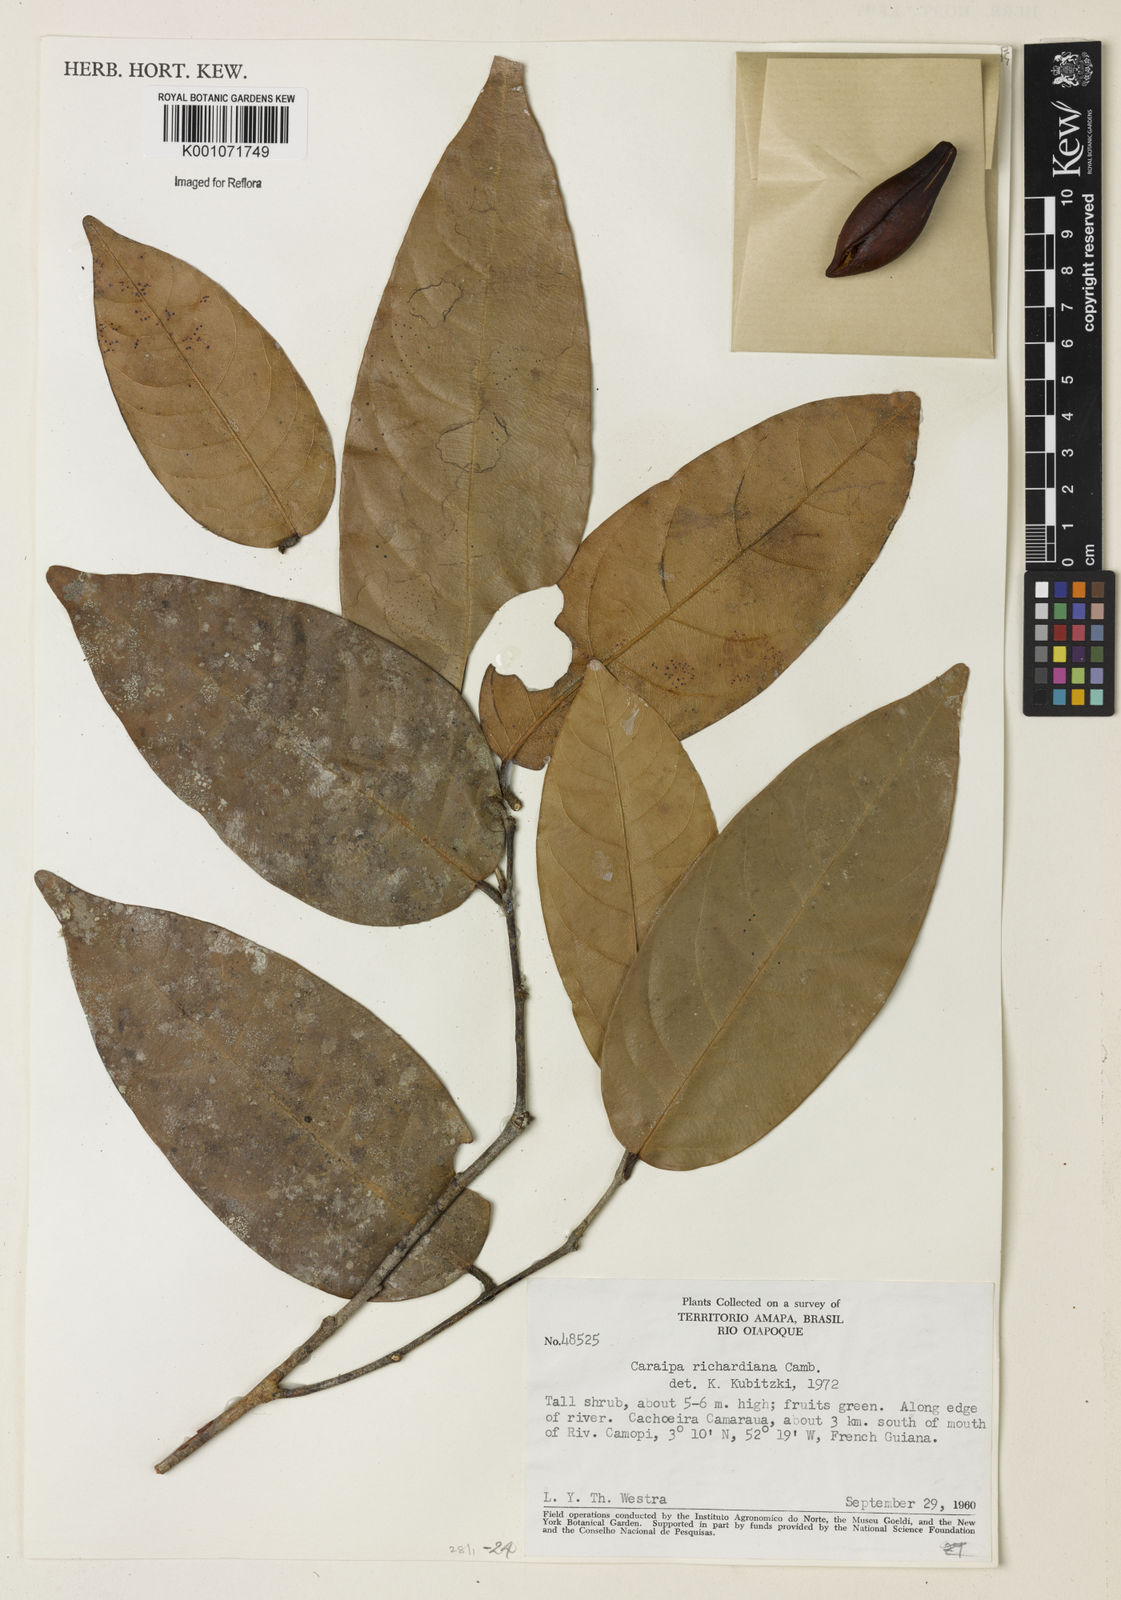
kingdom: Plantae
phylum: Tracheophyta
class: Magnoliopsida
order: Malpighiales
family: Calophyllaceae
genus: Caraipa
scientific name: Caraipa richardiana
